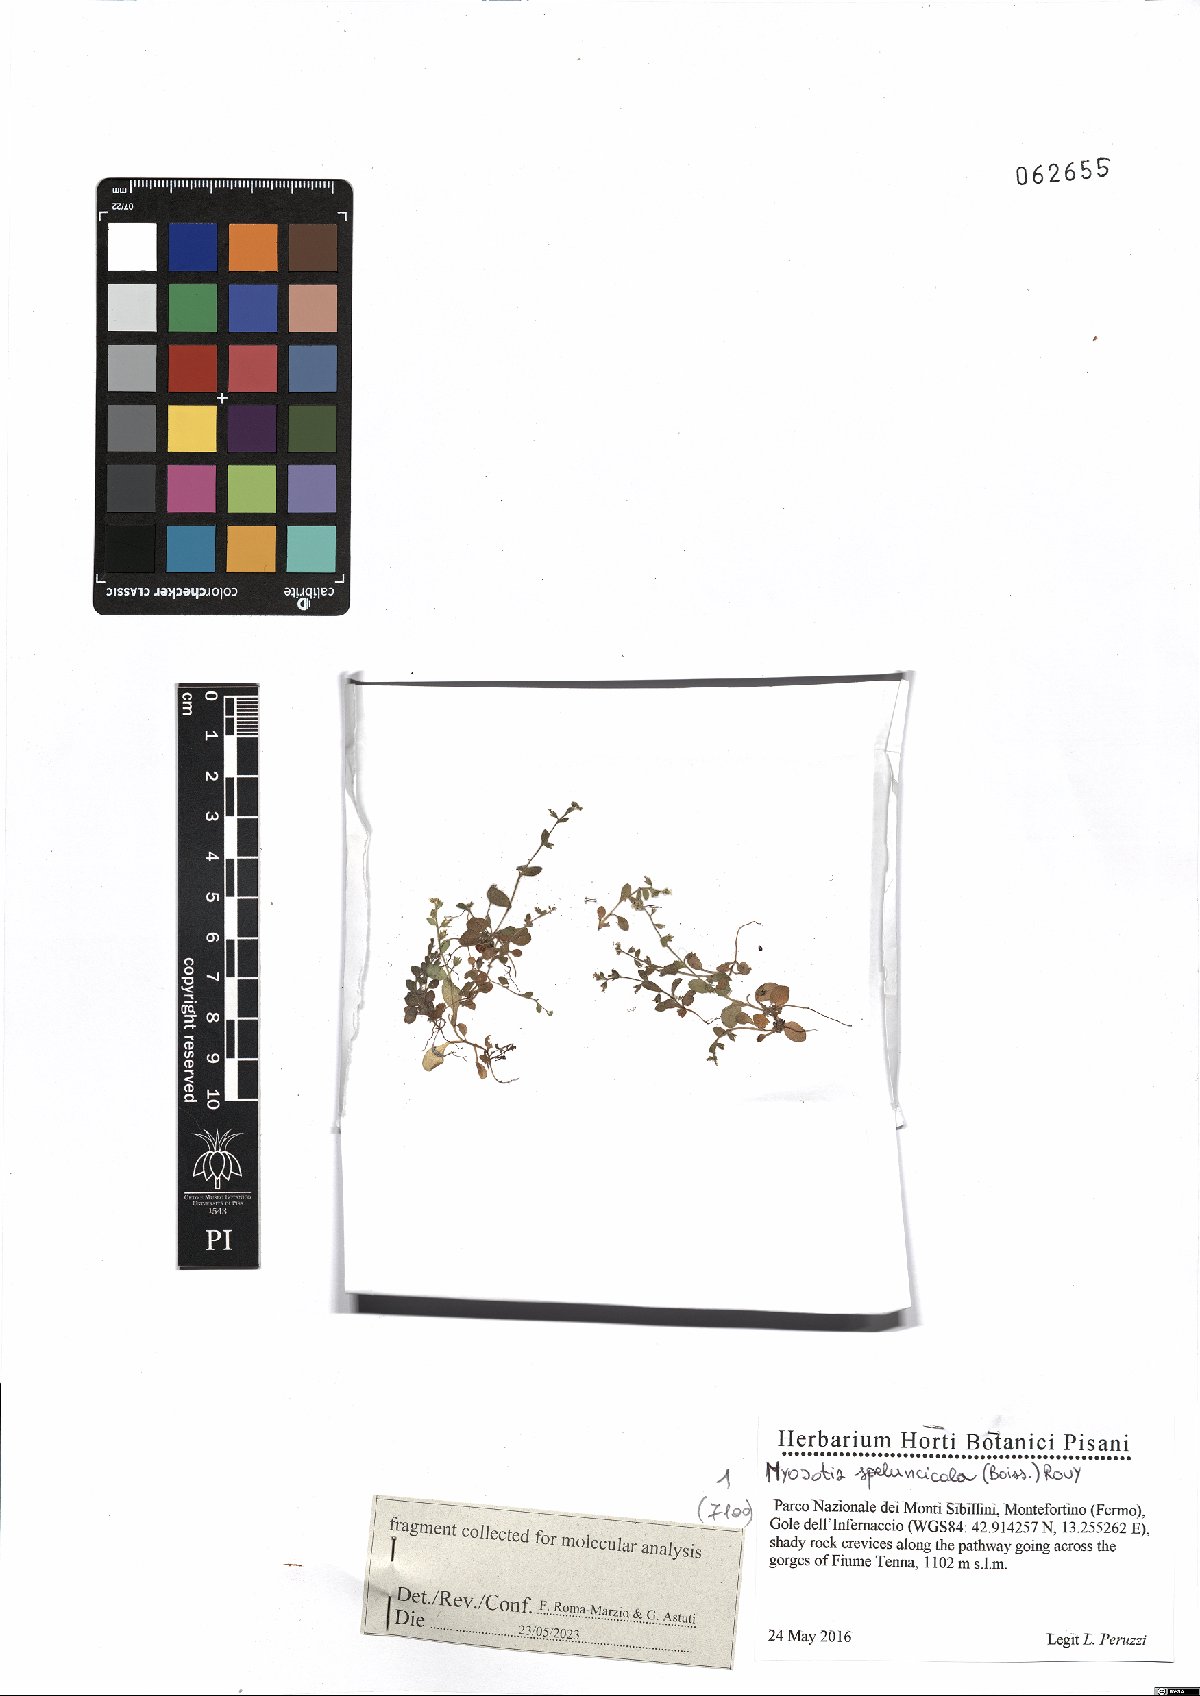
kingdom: Plantae
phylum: Tracheophyta
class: Magnoliopsida
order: Boraginales
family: Boraginaceae
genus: Myosotis
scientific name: Myosotis speluncicola
